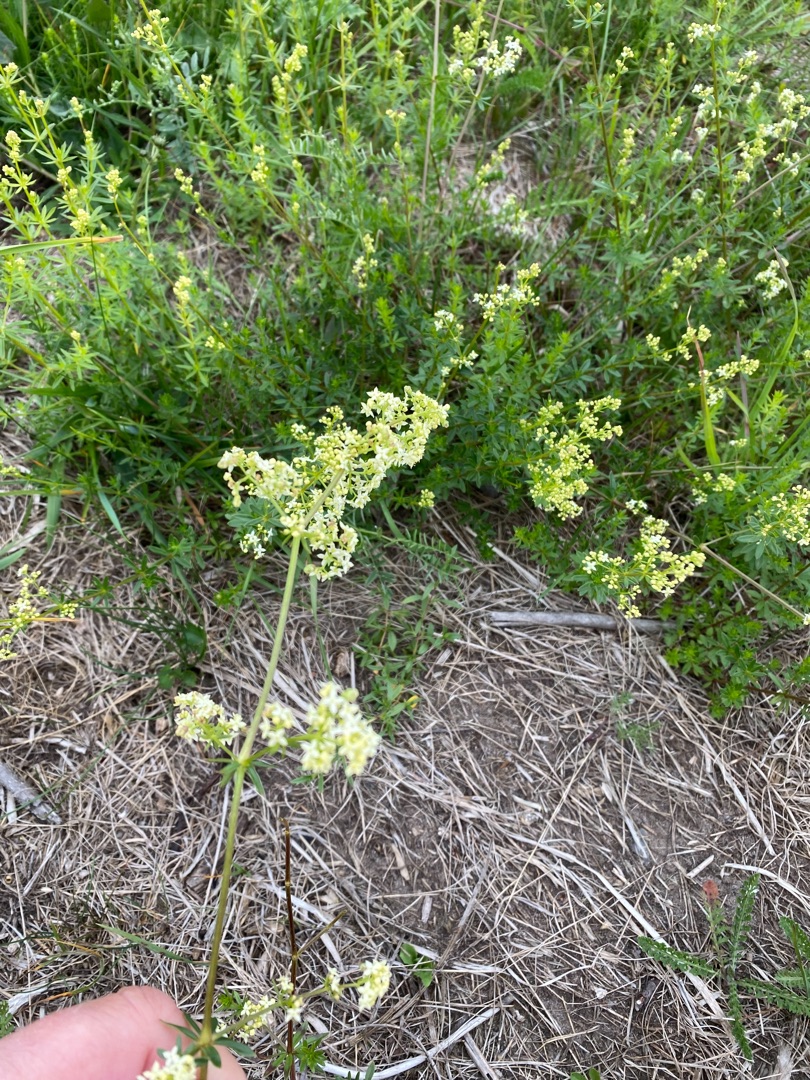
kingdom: Plantae
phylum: Tracheophyta
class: Magnoliopsida
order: Gentianales
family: Rubiaceae
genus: Galium
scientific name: Galium mollugo
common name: Hvid snerre
